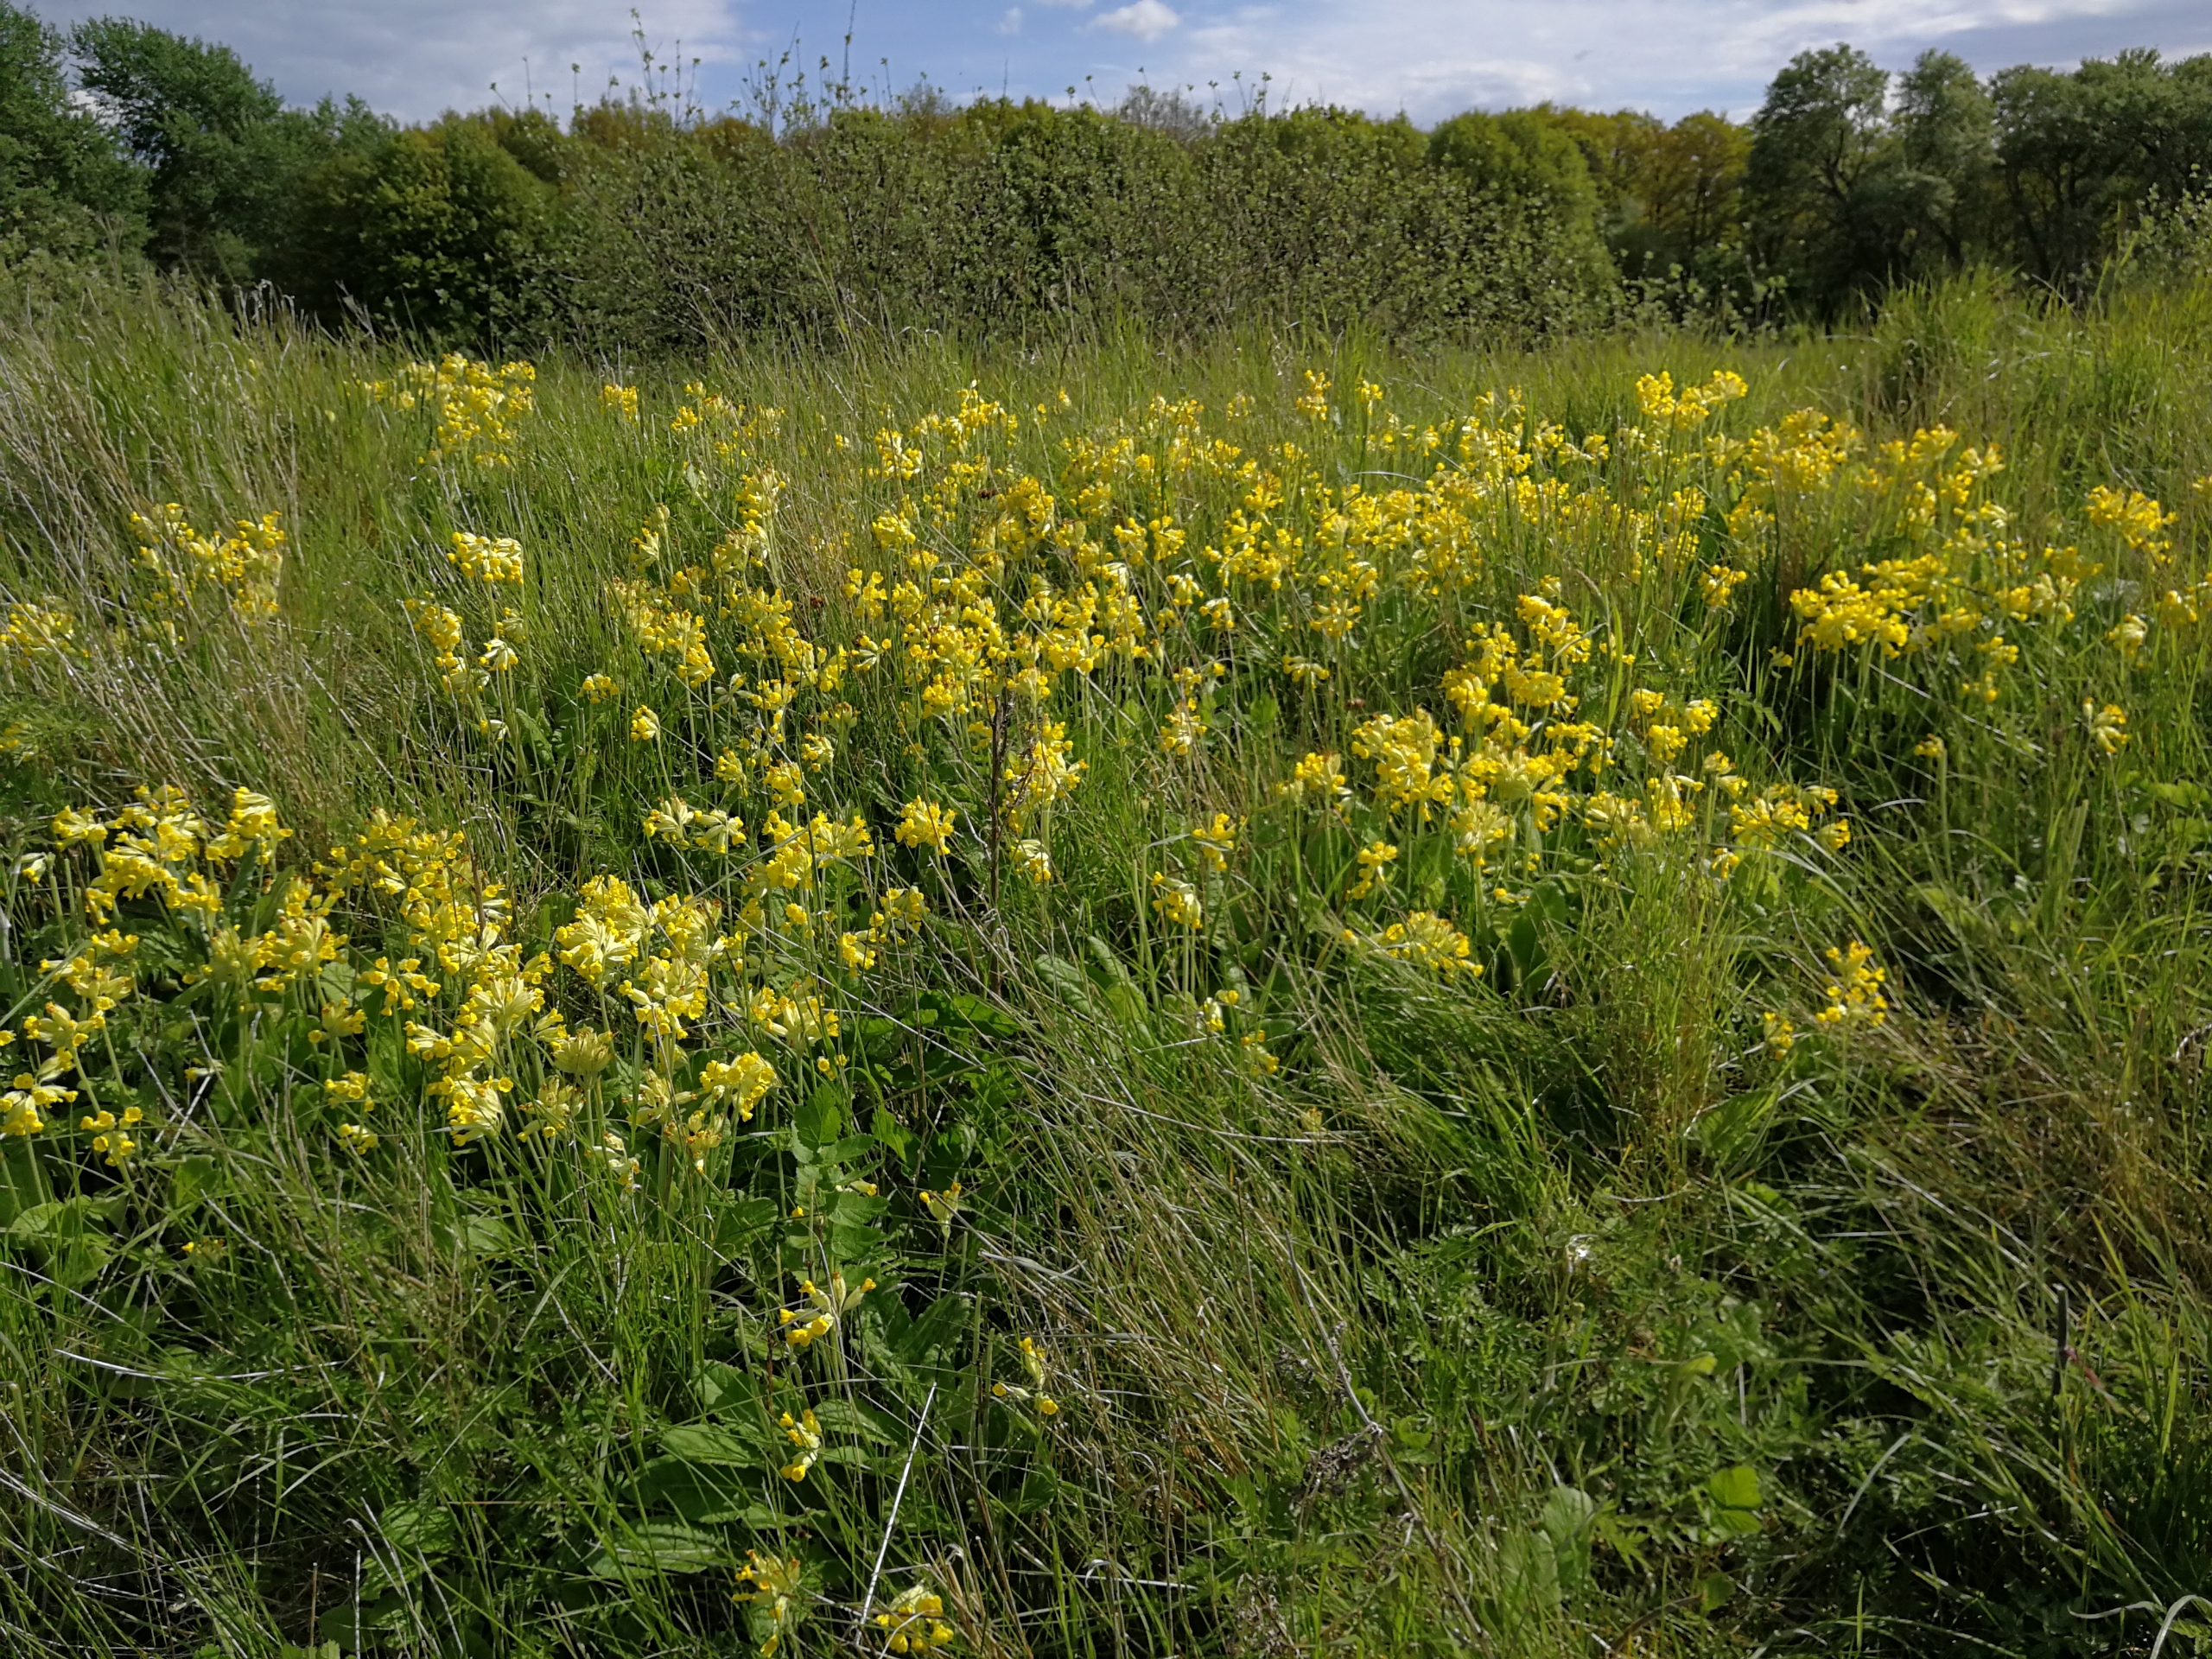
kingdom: Plantae
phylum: Tracheophyta
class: Magnoliopsida
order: Ericales
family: Primulaceae
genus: Primula
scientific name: Primula veris
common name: Hulkravet kodriver
